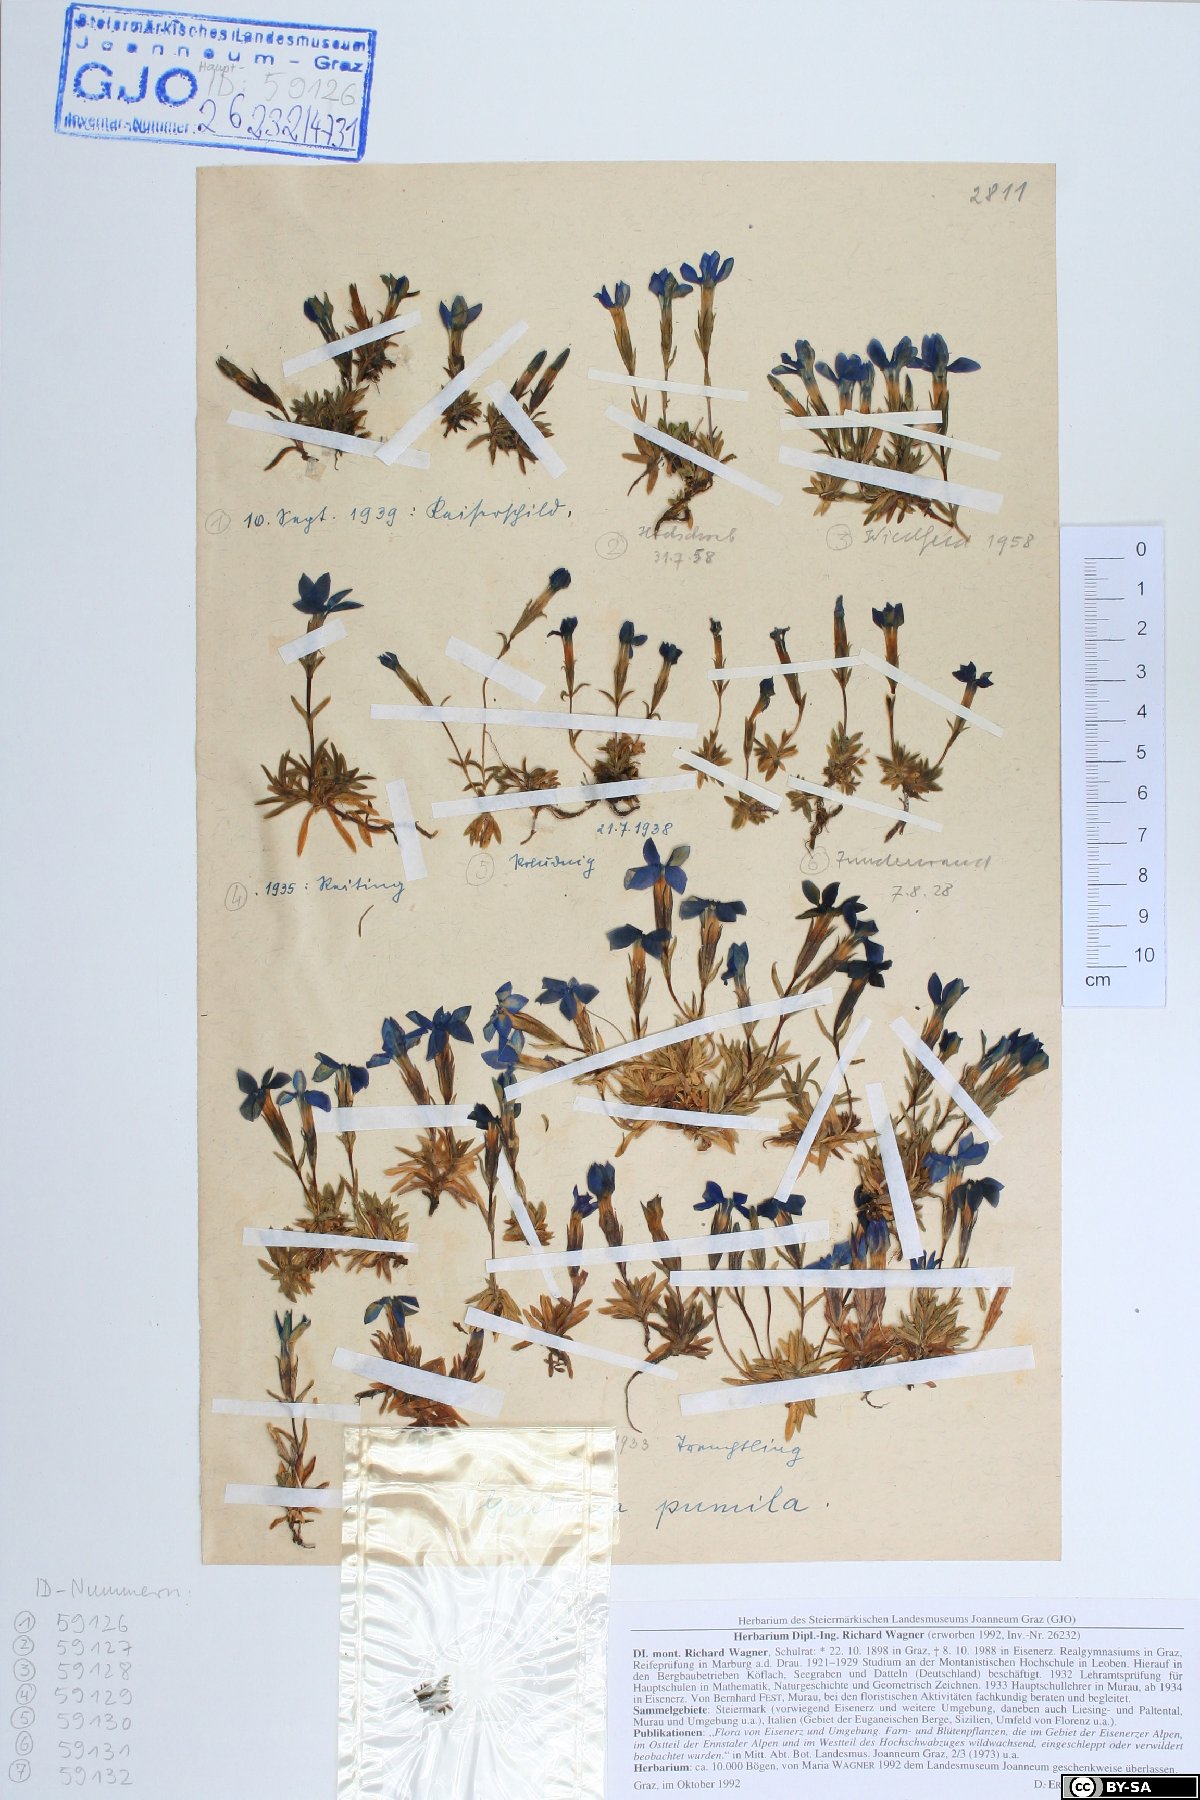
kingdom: Plantae
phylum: Tracheophyta
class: Magnoliopsida
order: Gentianales
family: Gentianaceae
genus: Gentiana
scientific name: Gentiana pumila
